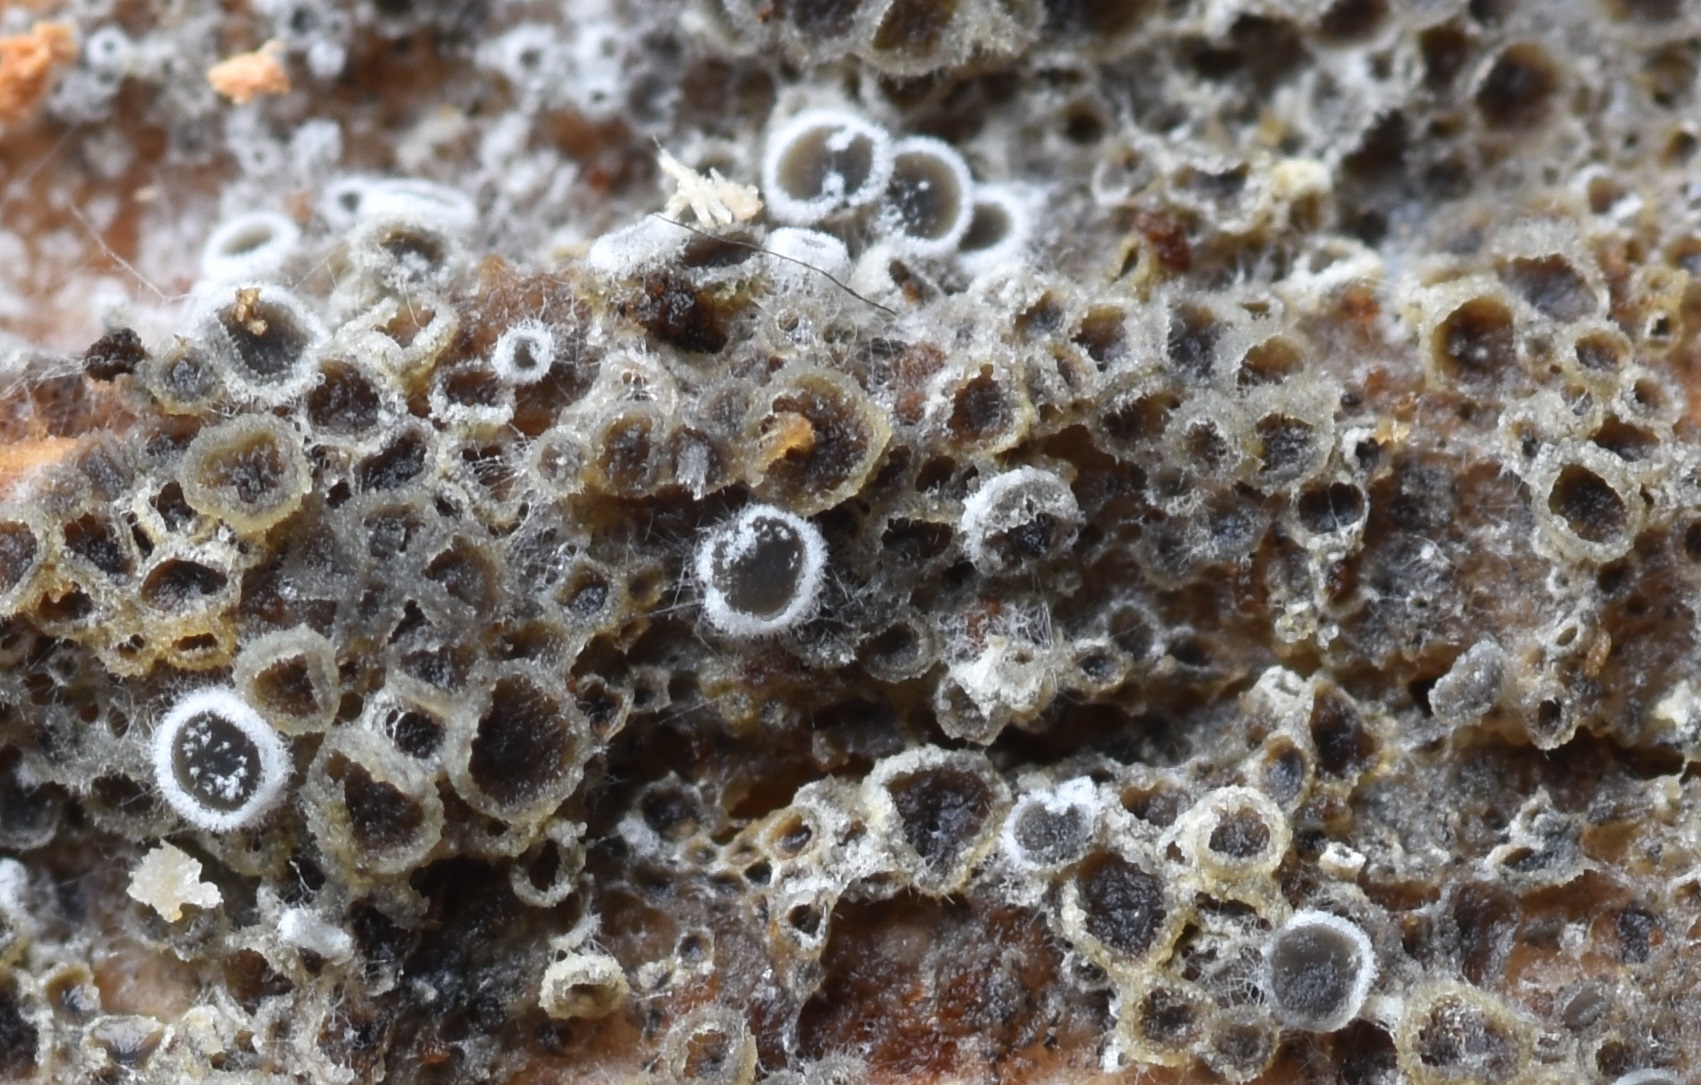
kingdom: Fungi
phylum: Ascomycota
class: Leotiomycetes
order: Helotiales
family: Arachnopezizaceae
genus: Eriopezia
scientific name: Eriopezia caesia
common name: ege-spindskive
